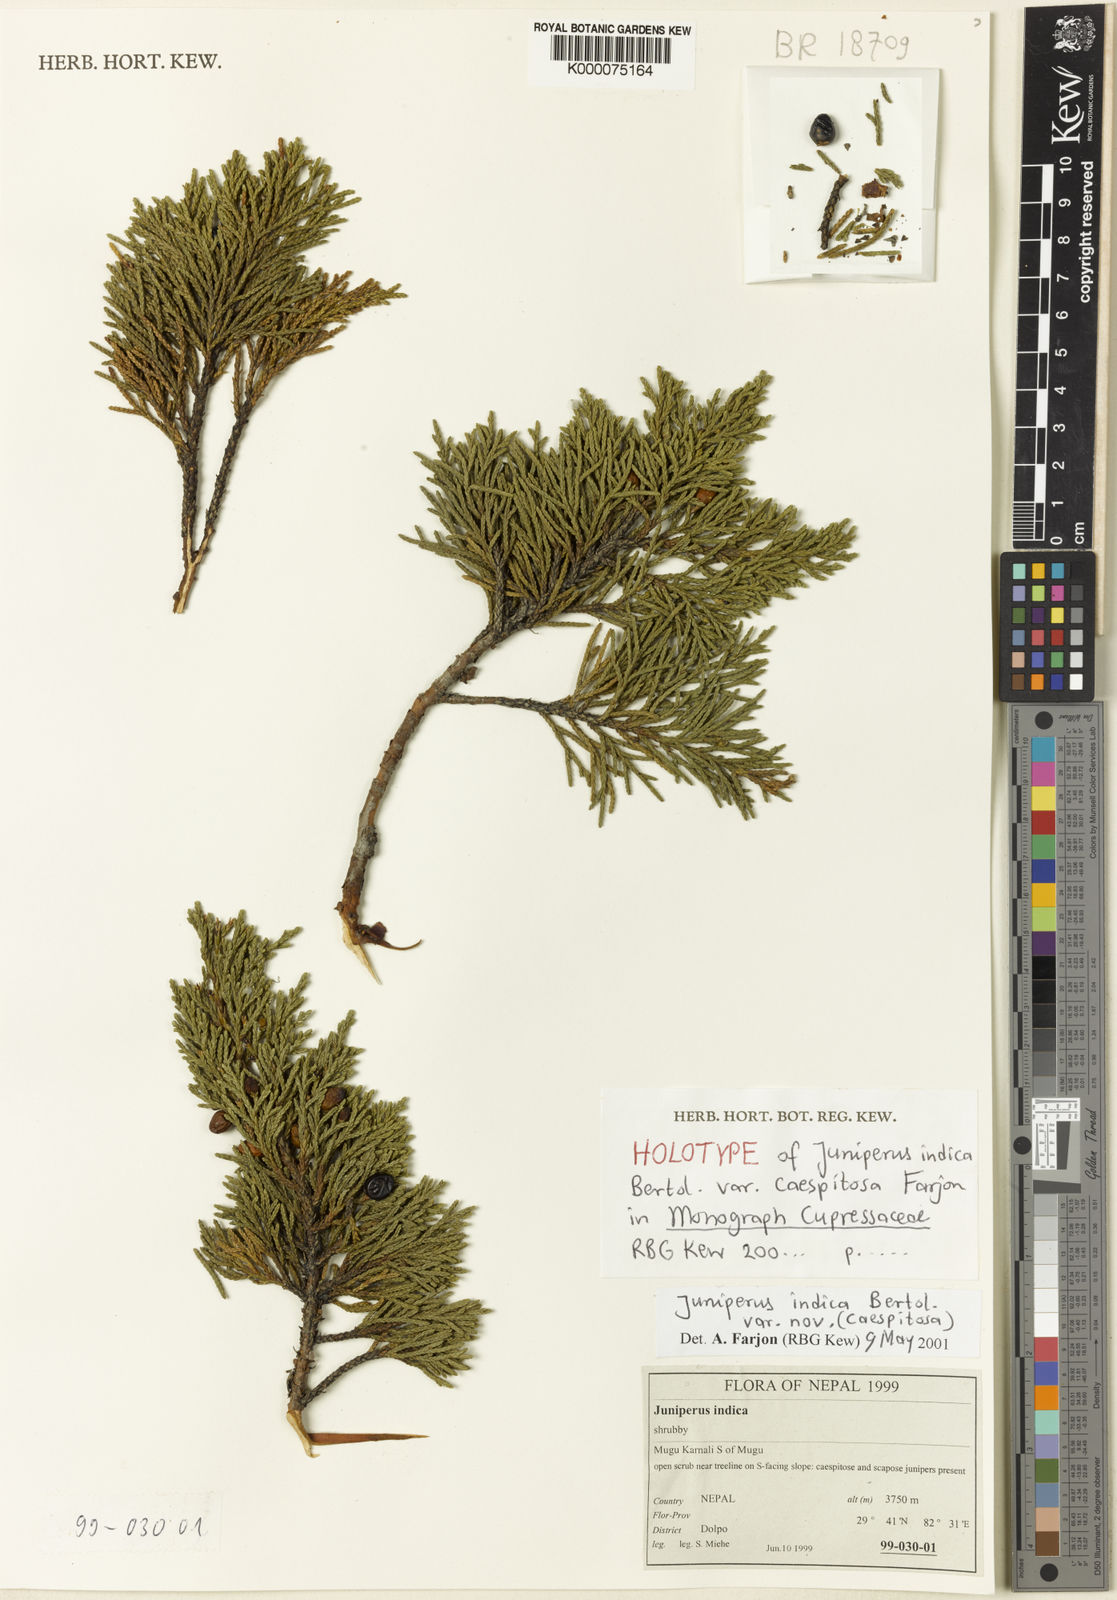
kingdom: Plantae
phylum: Tracheophyta
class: Pinopsida
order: Pinales
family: Cupressaceae
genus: Juniperus
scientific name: Juniperus indica
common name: Black juniper
